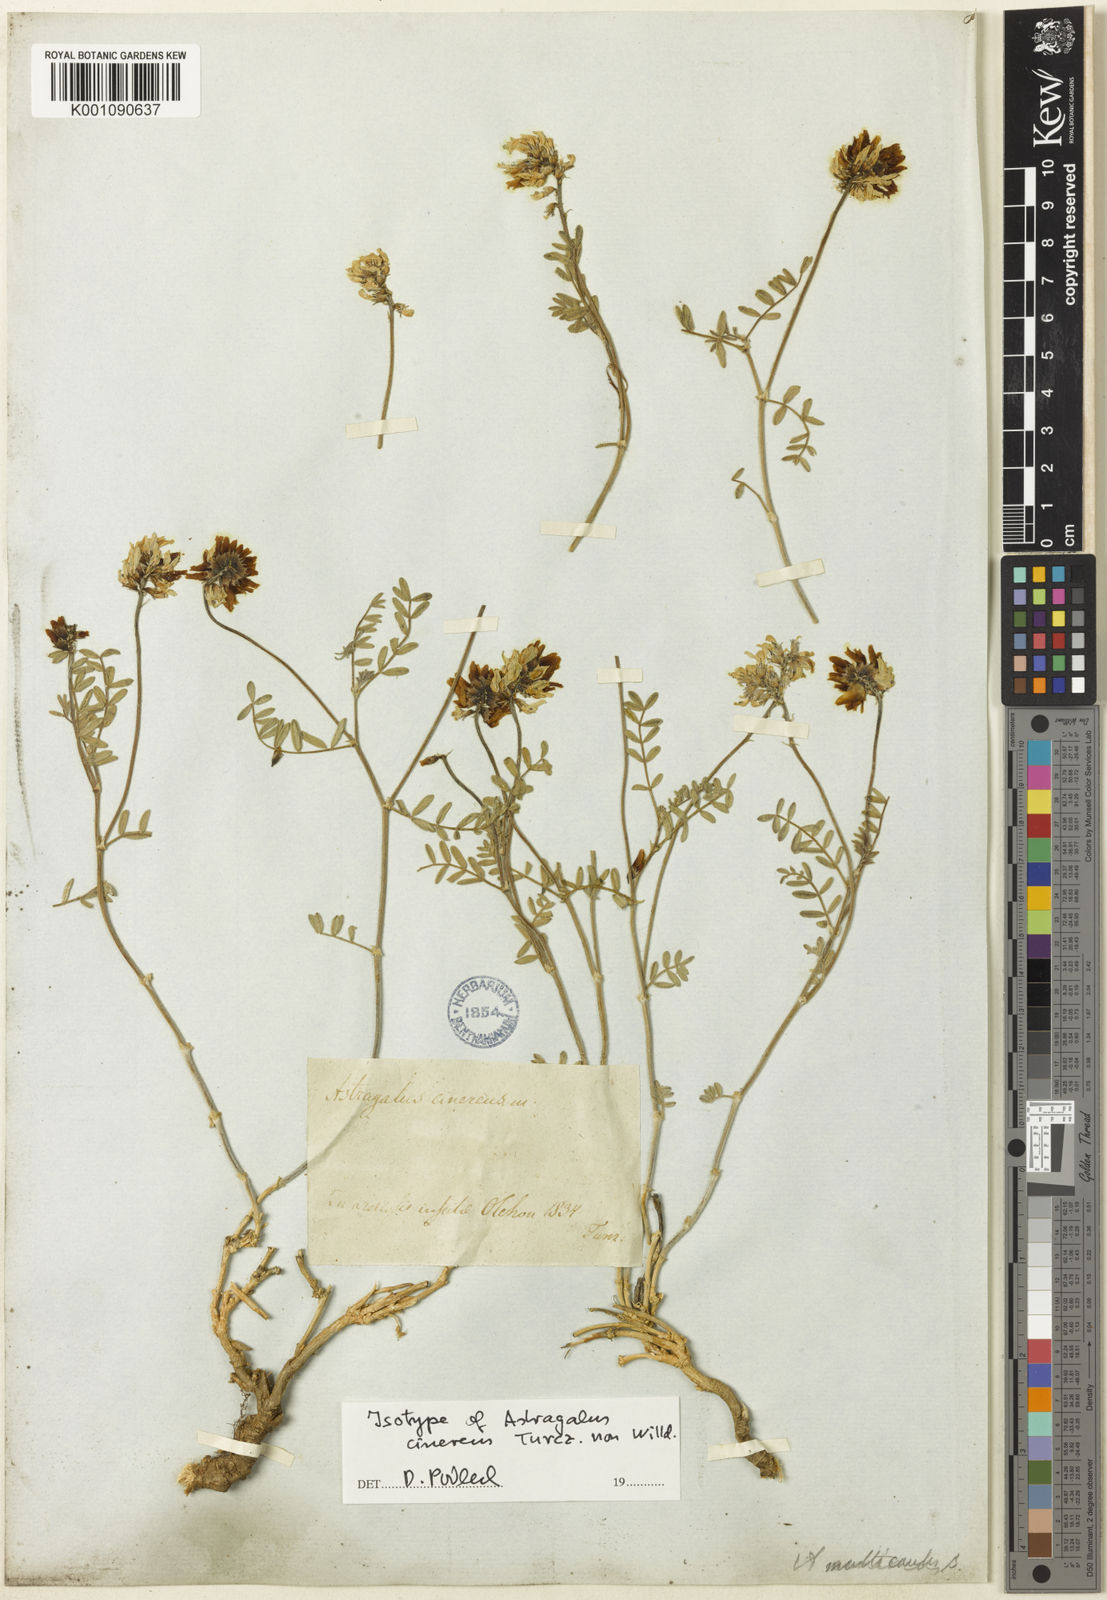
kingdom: Plantae
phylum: Tracheophyta
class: Magnoliopsida
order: Fabales
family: Fabaceae
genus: Astragalus
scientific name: Astragalus
